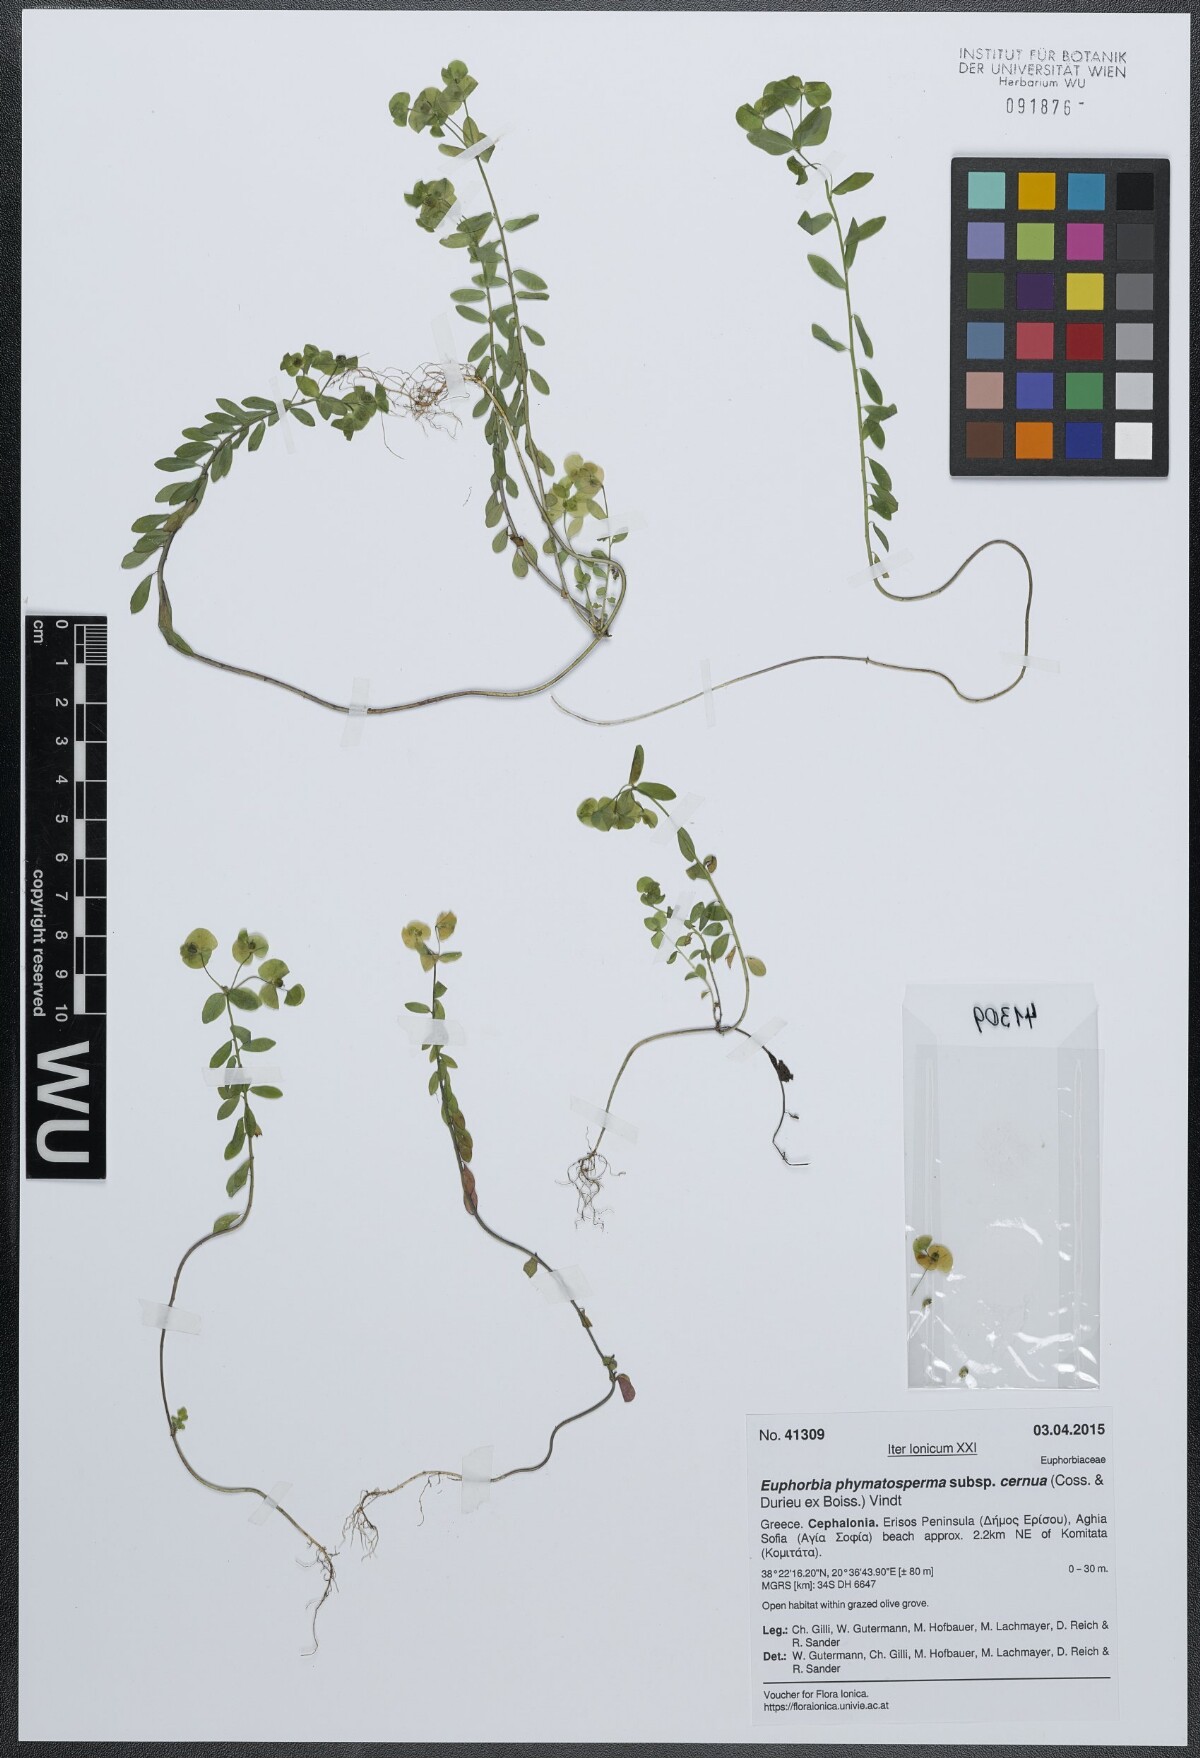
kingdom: Plantae
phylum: Tracheophyta
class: Magnoliopsida
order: Malpighiales
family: Euphorbiaceae
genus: Euphorbia
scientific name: Euphorbia phymatosperma
